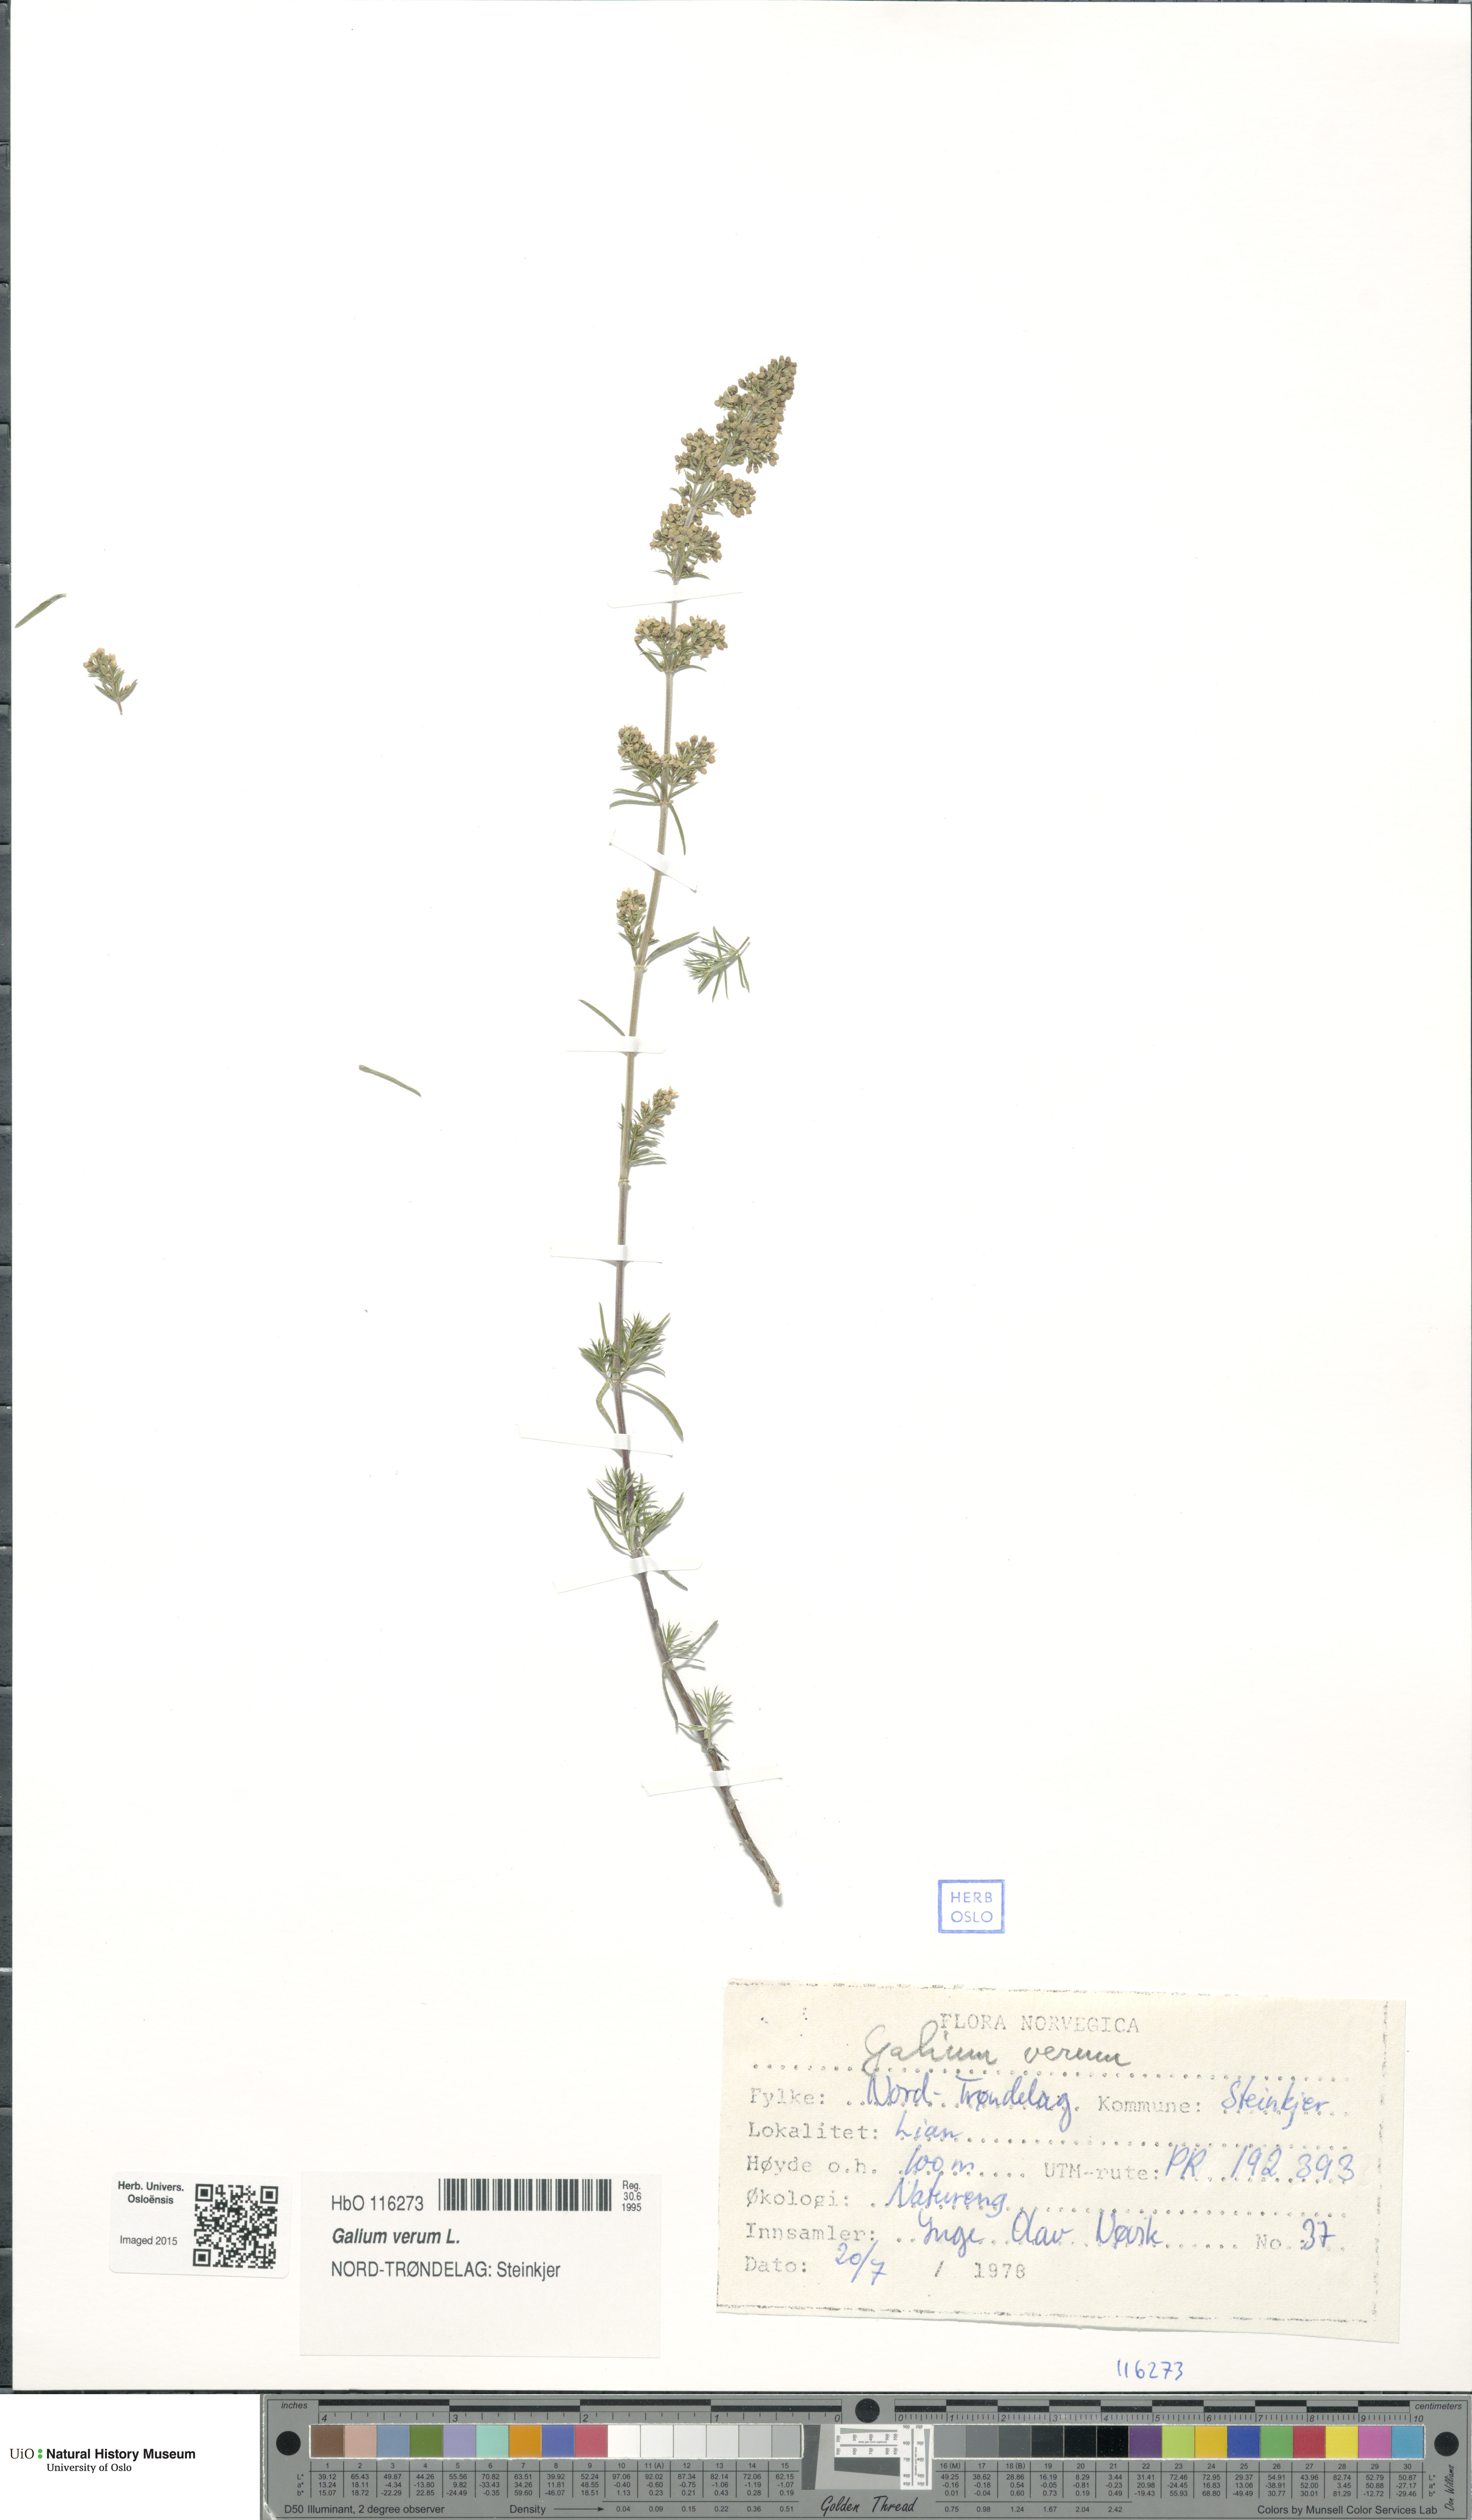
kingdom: Plantae
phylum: Tracheophyta
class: Magnoliopsida
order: Gentianales
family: Rubiaceae
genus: Galium
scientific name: Galium verum
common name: Lady's bedstraw
